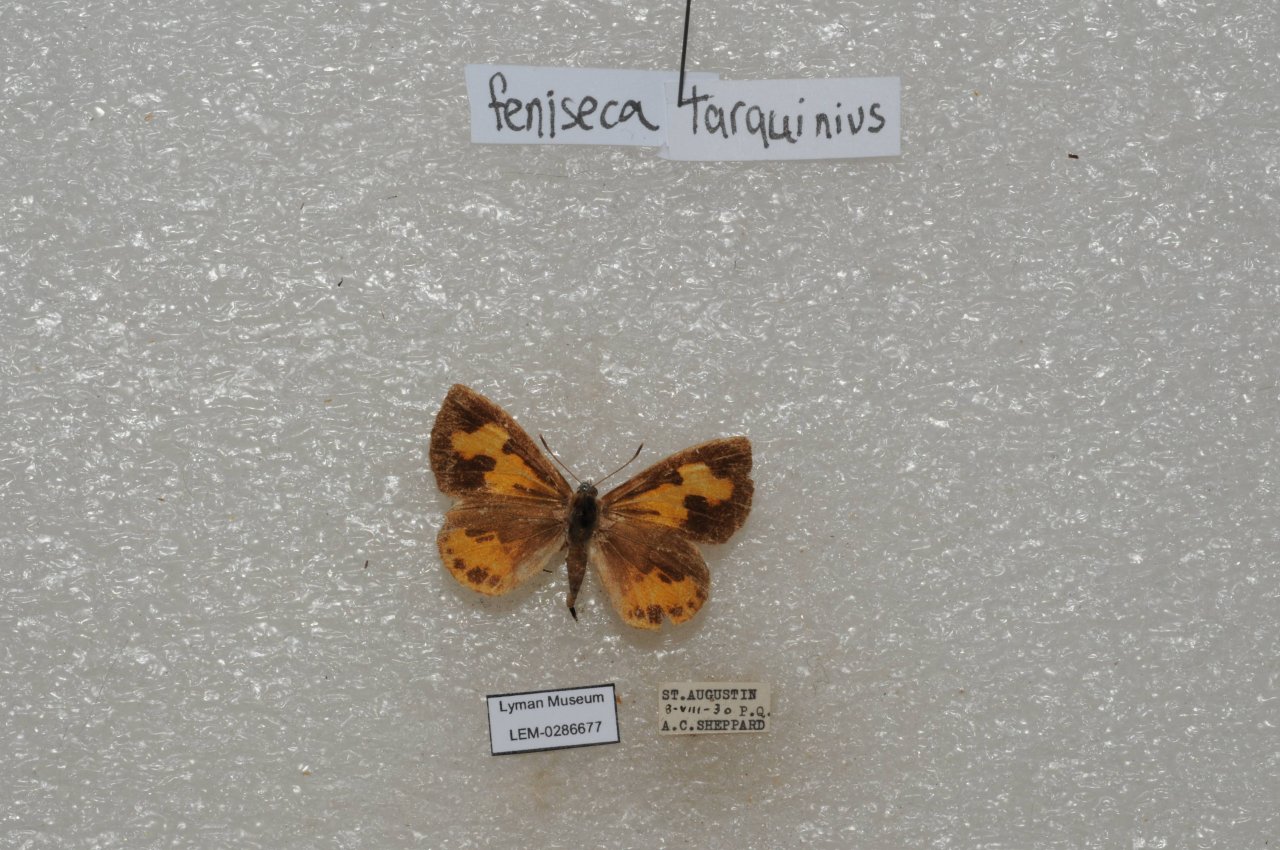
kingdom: Animalia
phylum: Arthropoda
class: Insecta
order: Lepidoptera
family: Lycaenidae
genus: Feniseca
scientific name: Feniseca tarquinius
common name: Harvester
